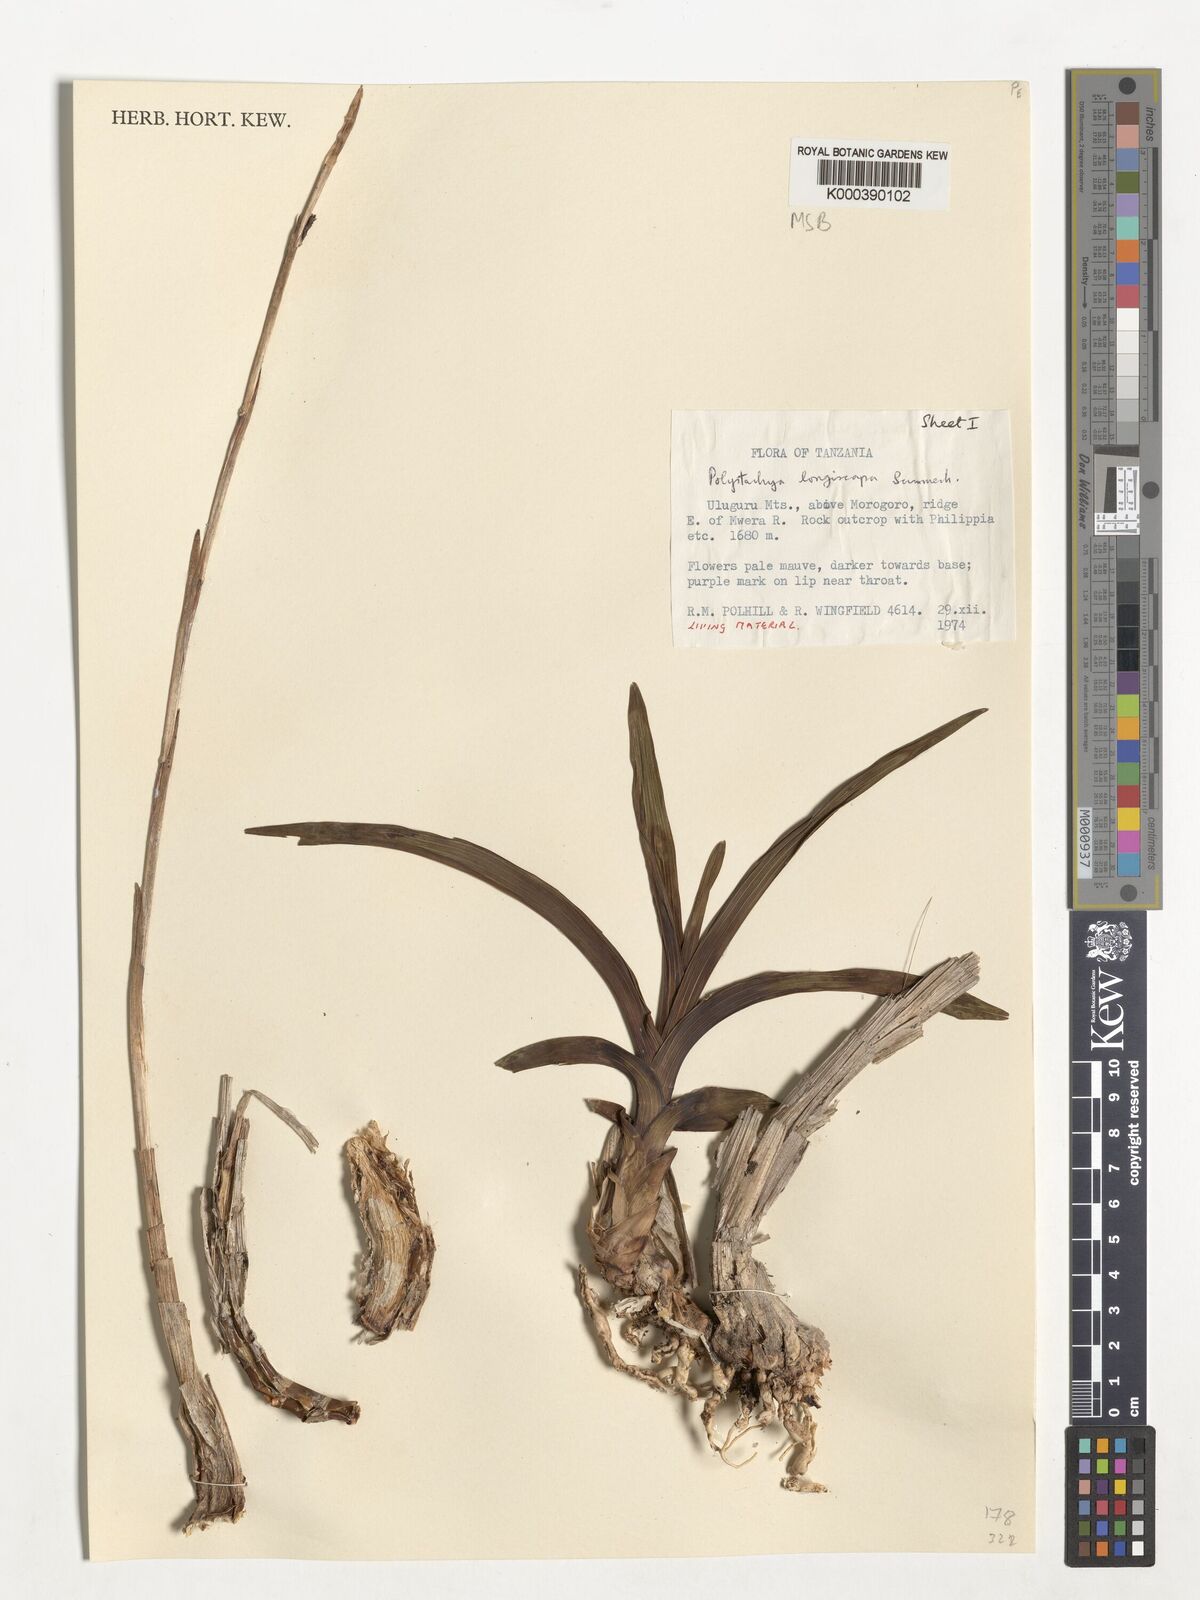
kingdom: Plantae
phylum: Tracheophyta
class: Liliopsida
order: Asparagales
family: Orchidaceae
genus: Polystachya
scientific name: Polystachya longiscapa
